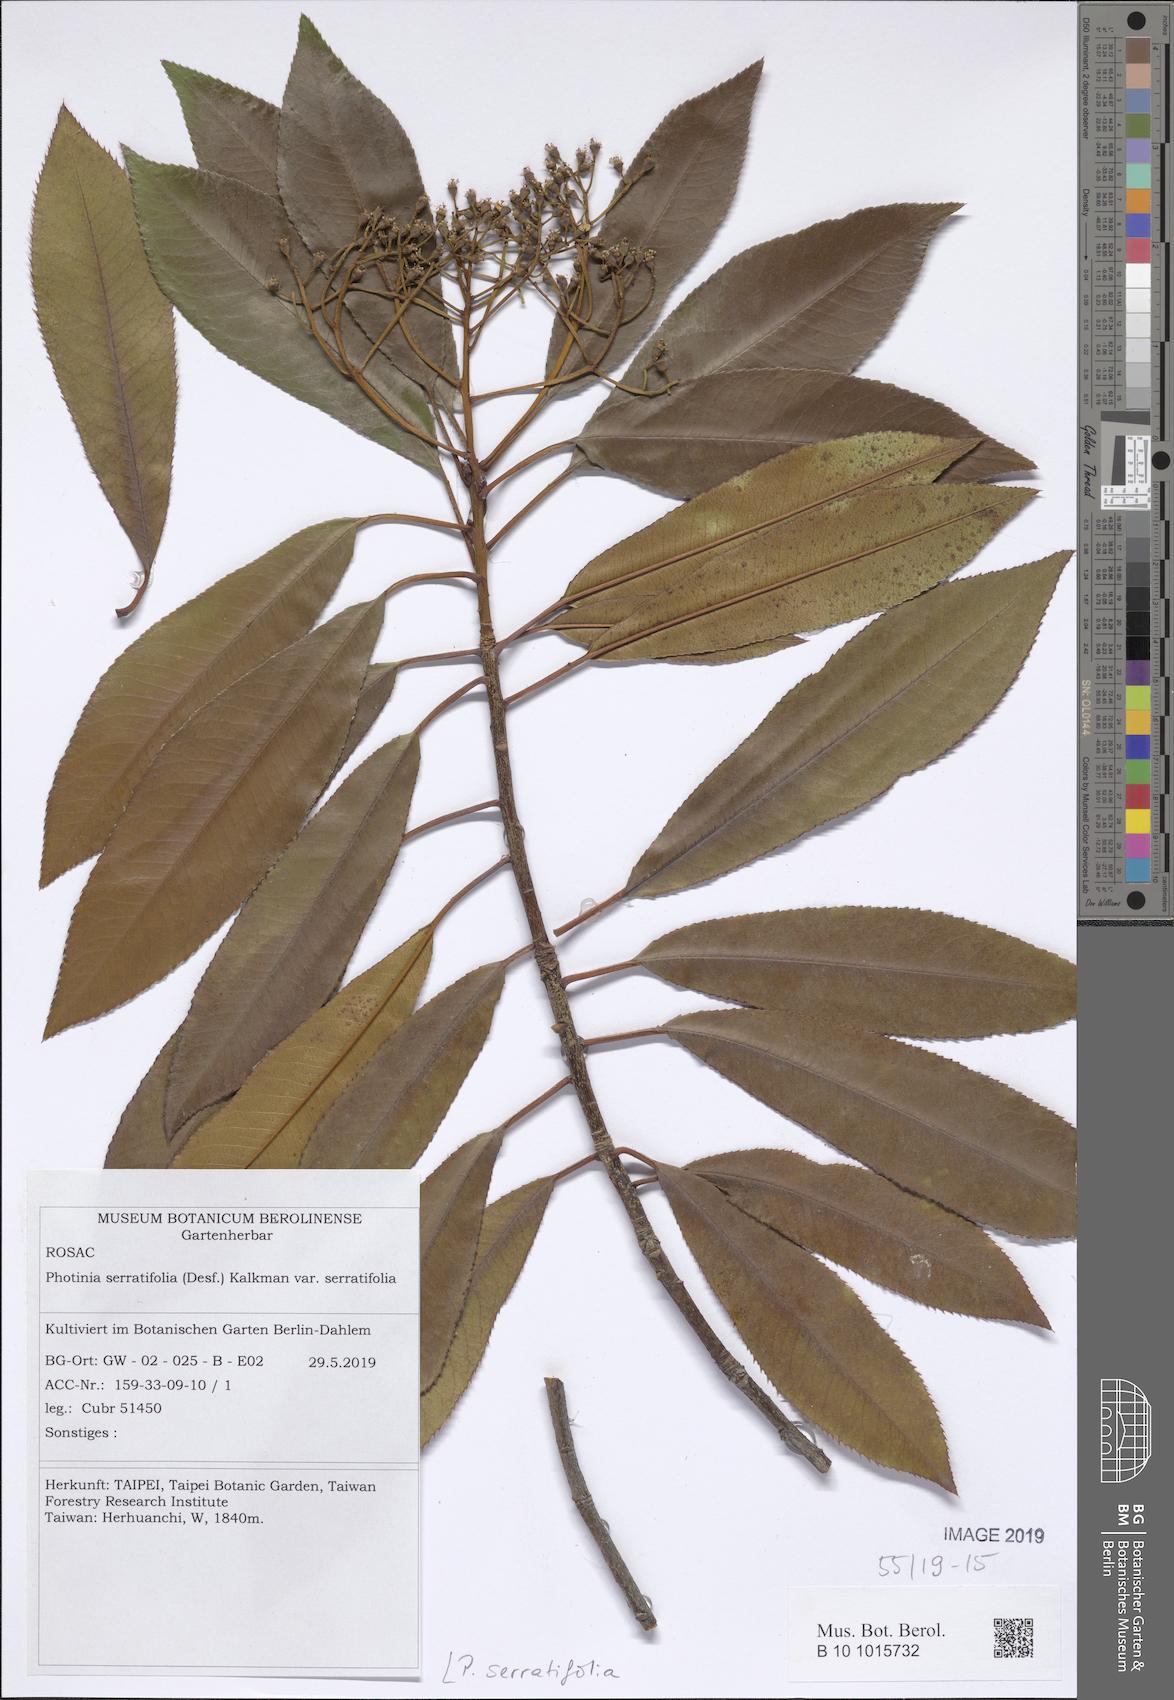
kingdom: Plantae
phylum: Tracheophyta
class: Magnoliopsida
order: Rosales
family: Rosaceae
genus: Photinia
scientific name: Photinia serratifolia
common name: Taiwanese photinia
